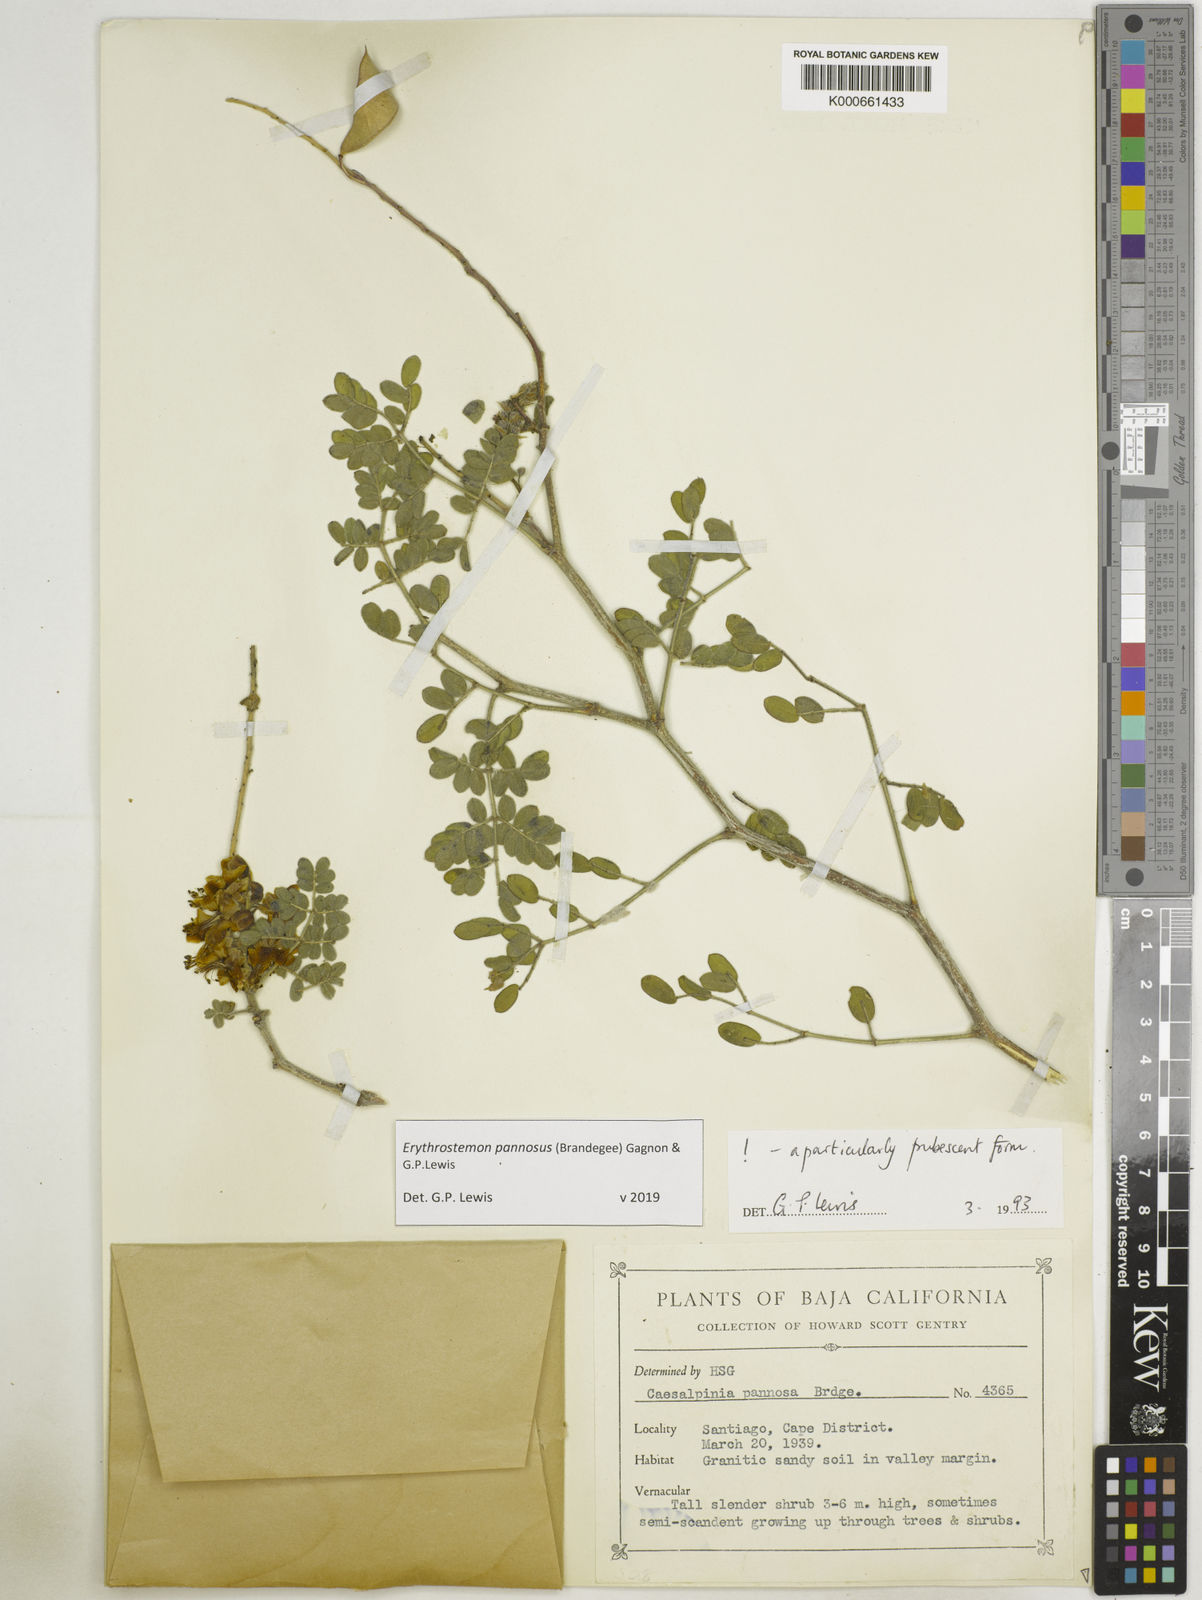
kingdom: Plantae
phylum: Tracheophyta
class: Magnoliopsida
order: Fabales
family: Fabaceae
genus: Erythrostemon
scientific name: Erythrostemon pannosus
